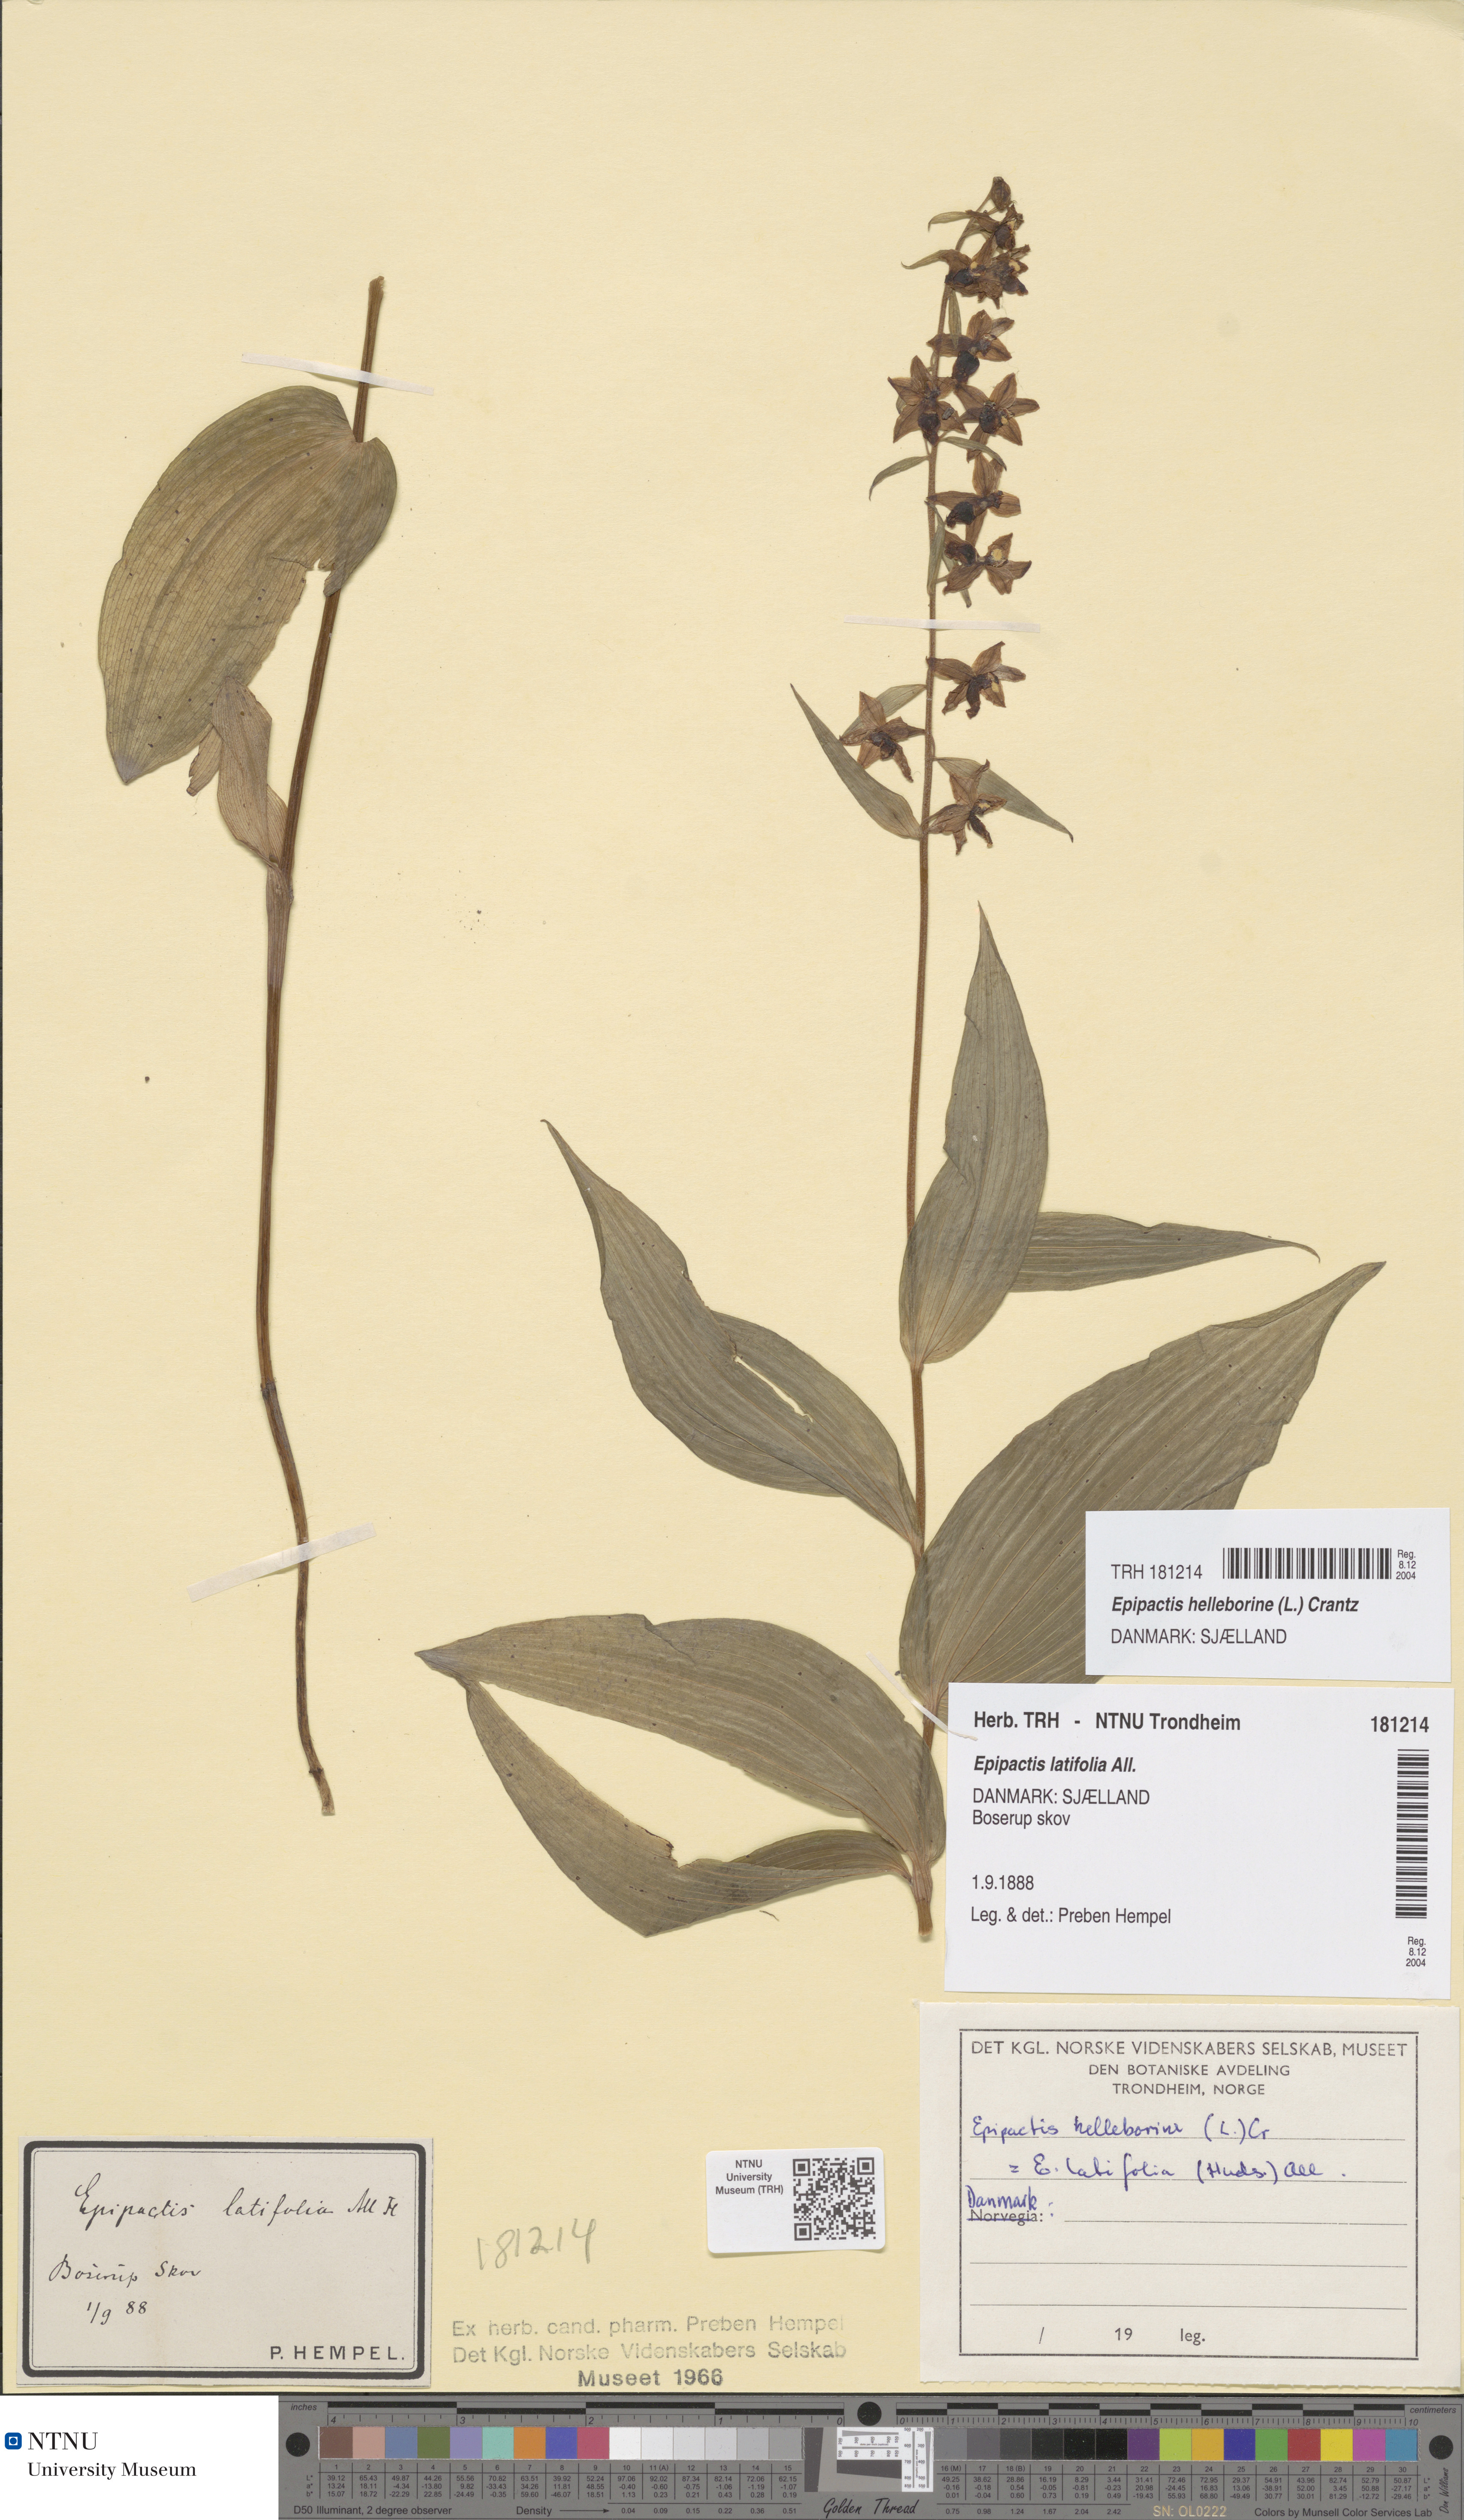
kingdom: Plantae
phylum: Tracheophyta
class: Liliopsida
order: Asparagales
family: Orchidaceae
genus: Epipactis
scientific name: Epipactis helleborine
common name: Broad-leaved helleborine
